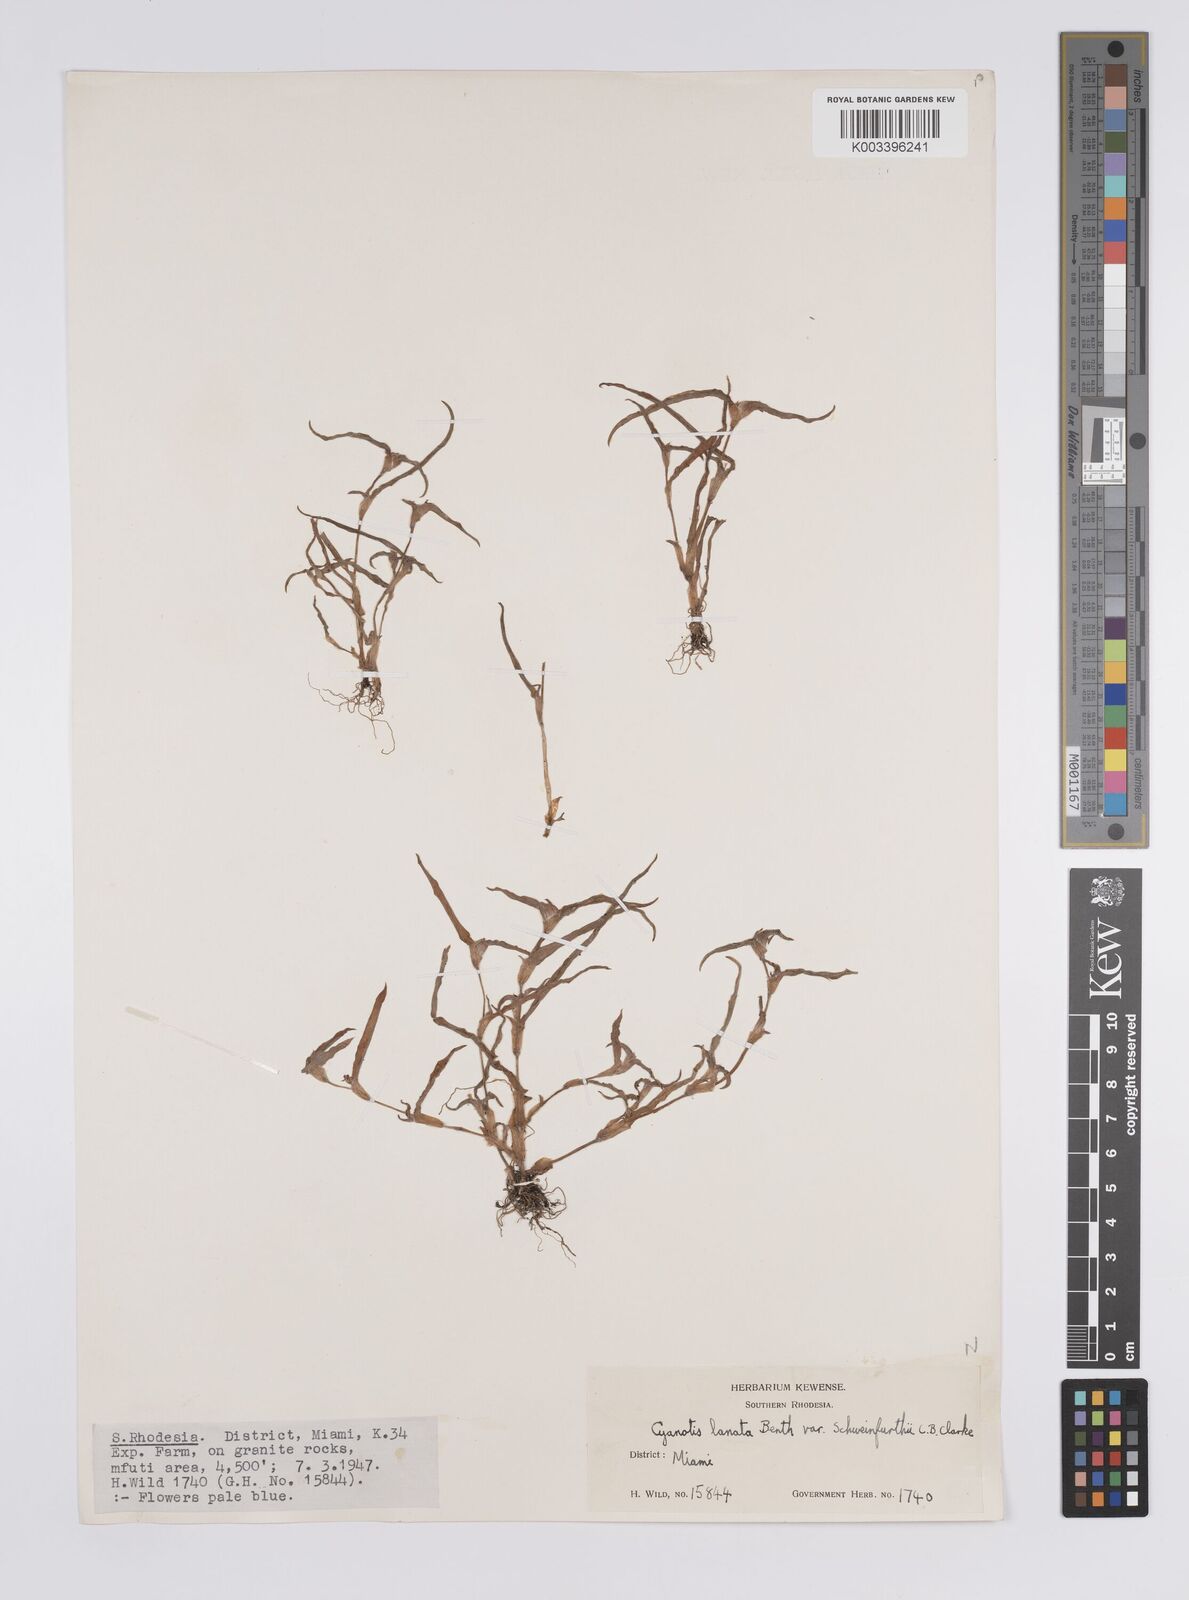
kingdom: Plantae
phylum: Tracheophyta
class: Liliopsida
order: Commelinales
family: Commelinaceae
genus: Cyanotis
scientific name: Cyanotis lanata
